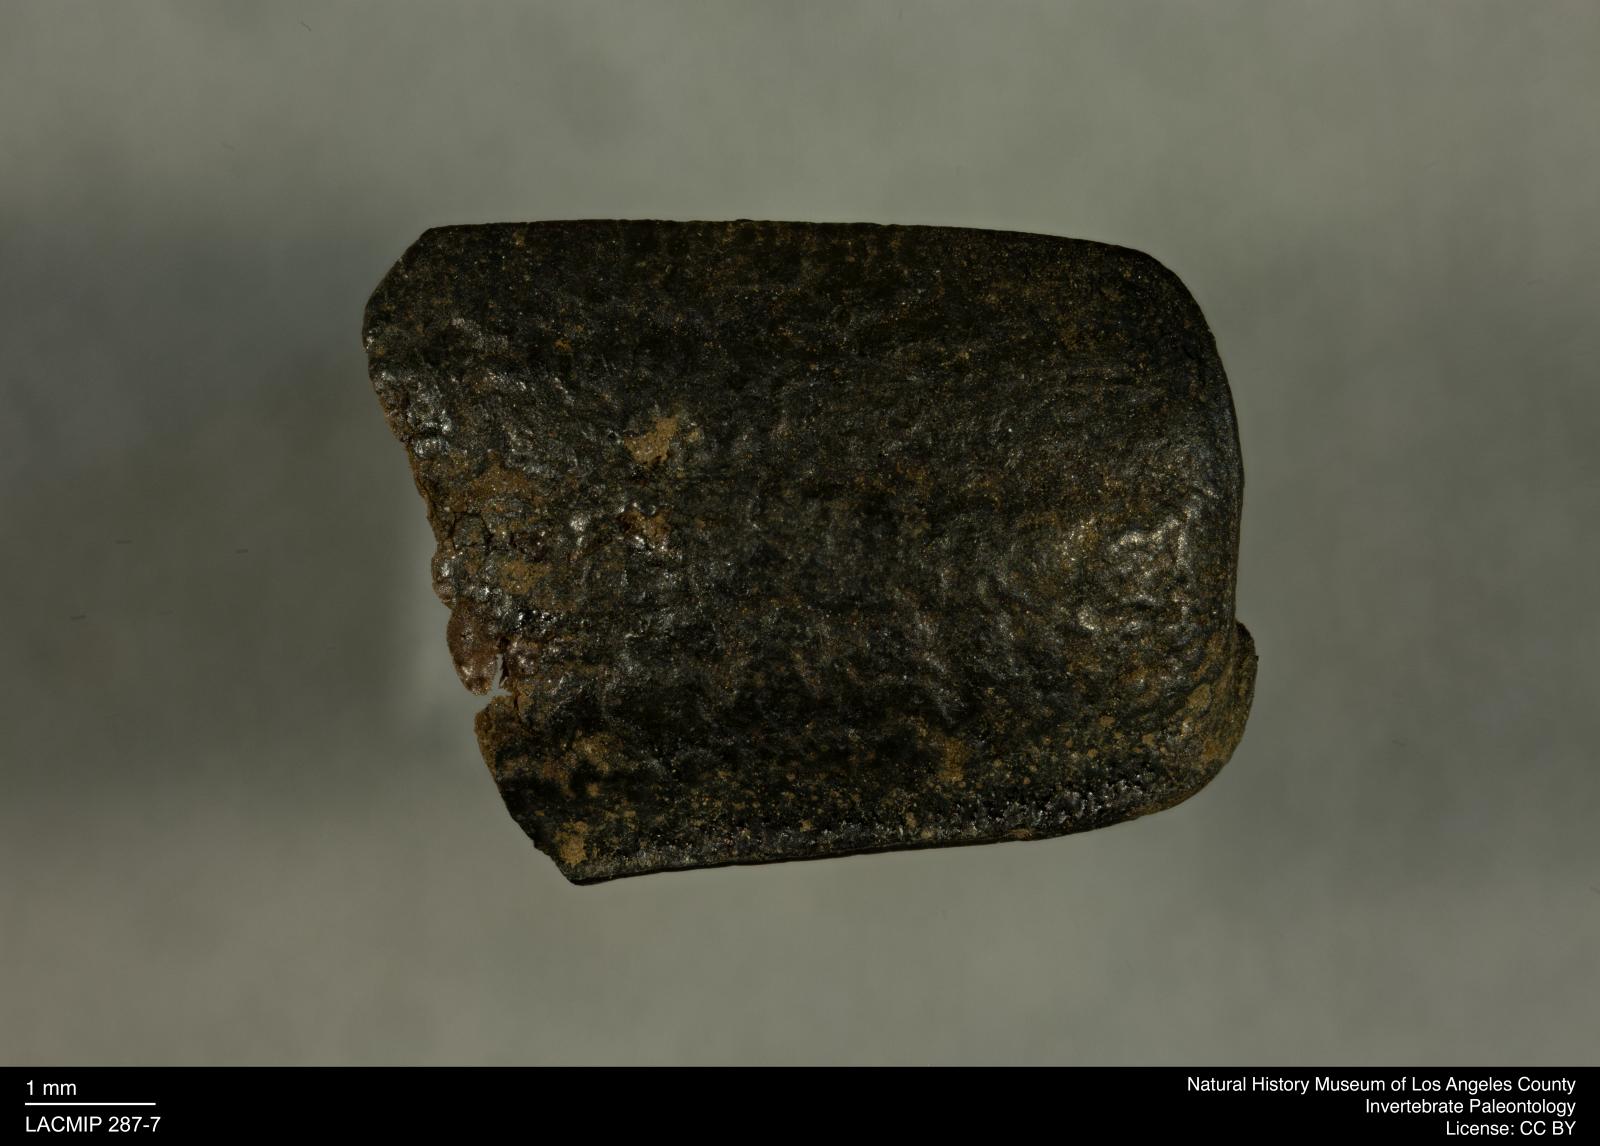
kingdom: Animalia
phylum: Arthropoda
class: Insecta
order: Coleoptera
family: Tenebrionidae
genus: Coniontis
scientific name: Coniontis abdominalis
